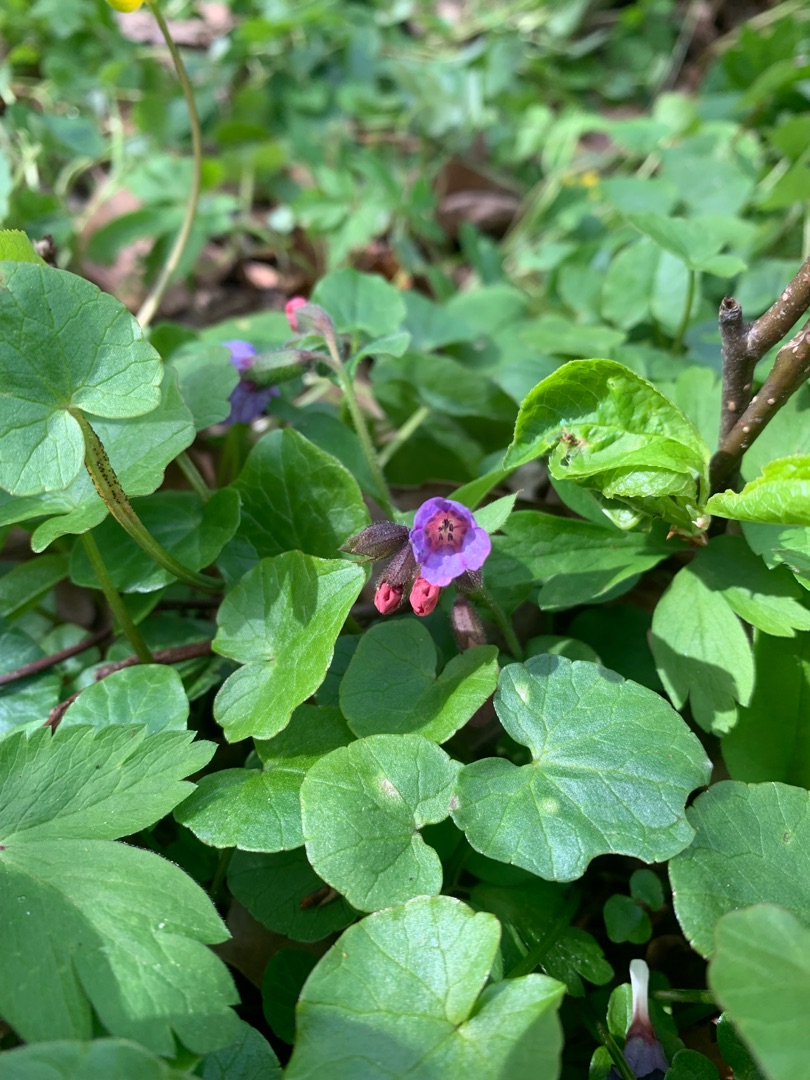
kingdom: Plantae
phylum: Tracheophyta
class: Magnoliopsida
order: Boraginales
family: Boraginaceae
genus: Pulmonaria
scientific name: Pulmonaria obscura
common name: Almindelig lungeurt
